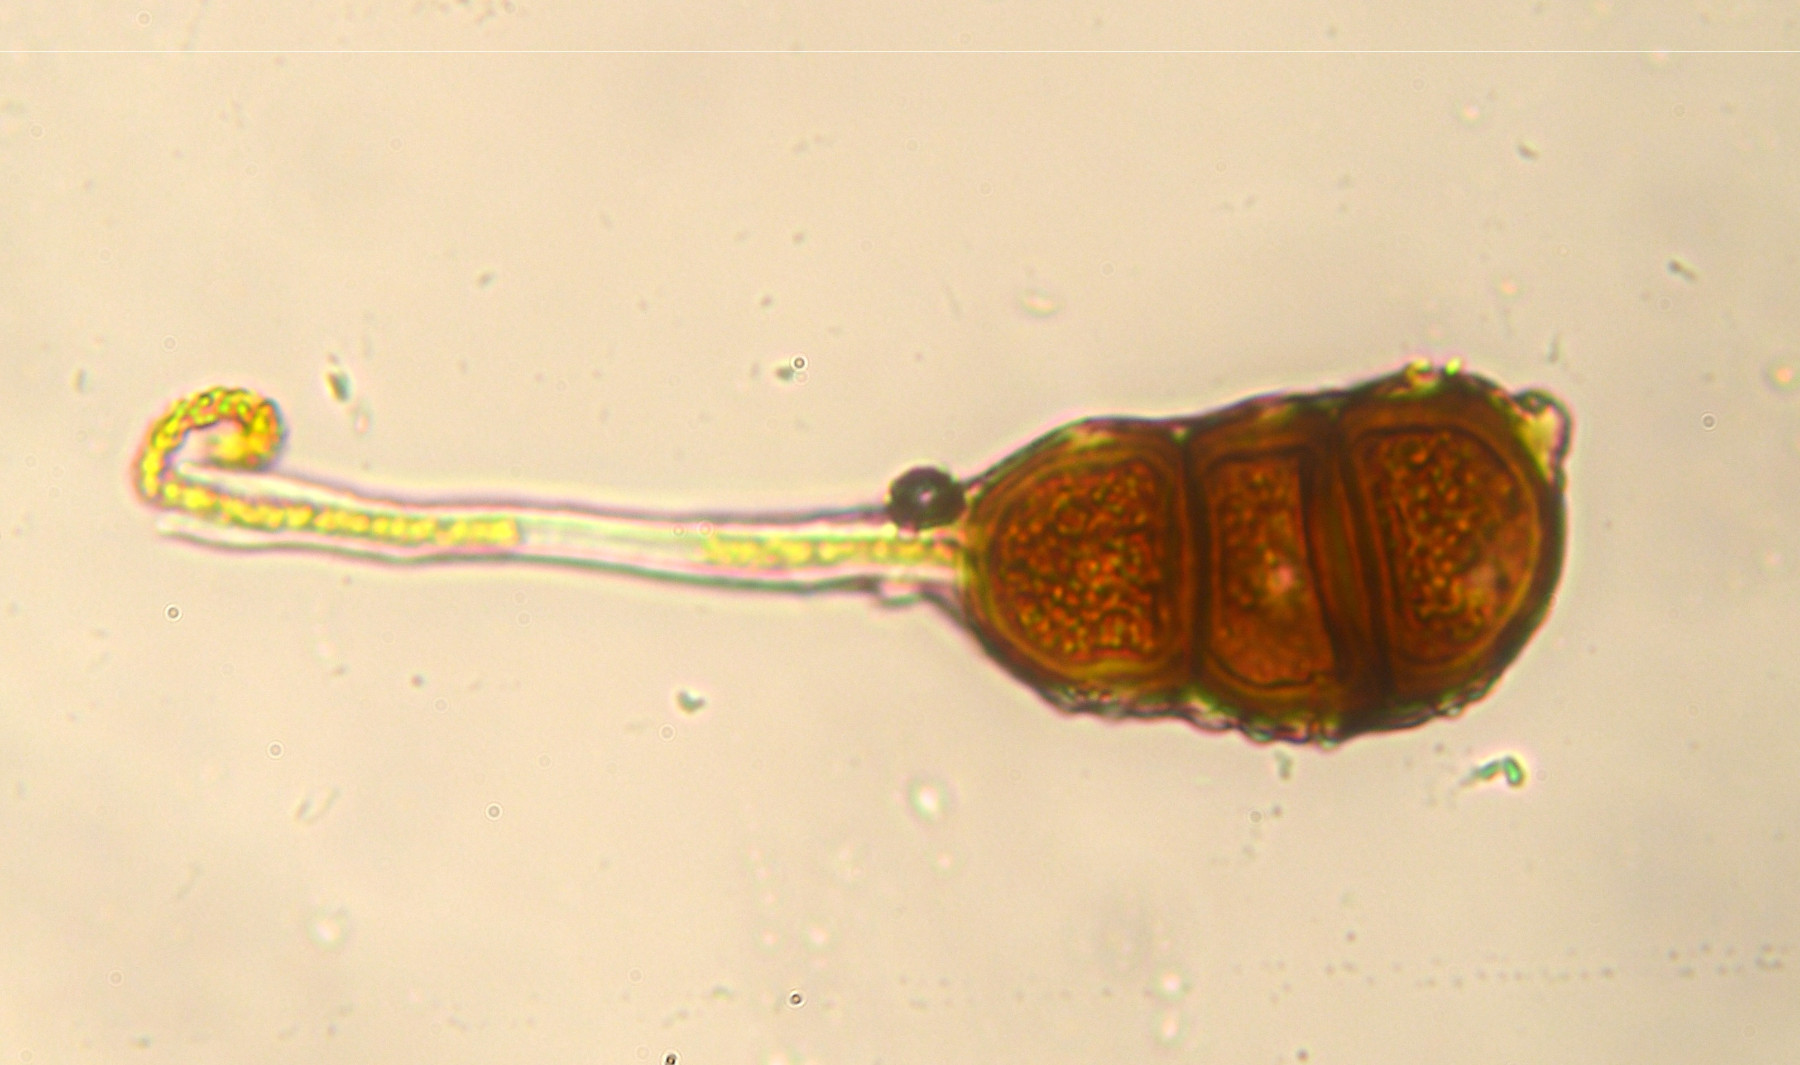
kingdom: Fungi
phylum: Basidiomycota
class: Pucciniomycetes
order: Pucciniales
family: Phragmidiaceae
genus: Phragmidium
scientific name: Phragmidium violaceum
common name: violet flercellerust
